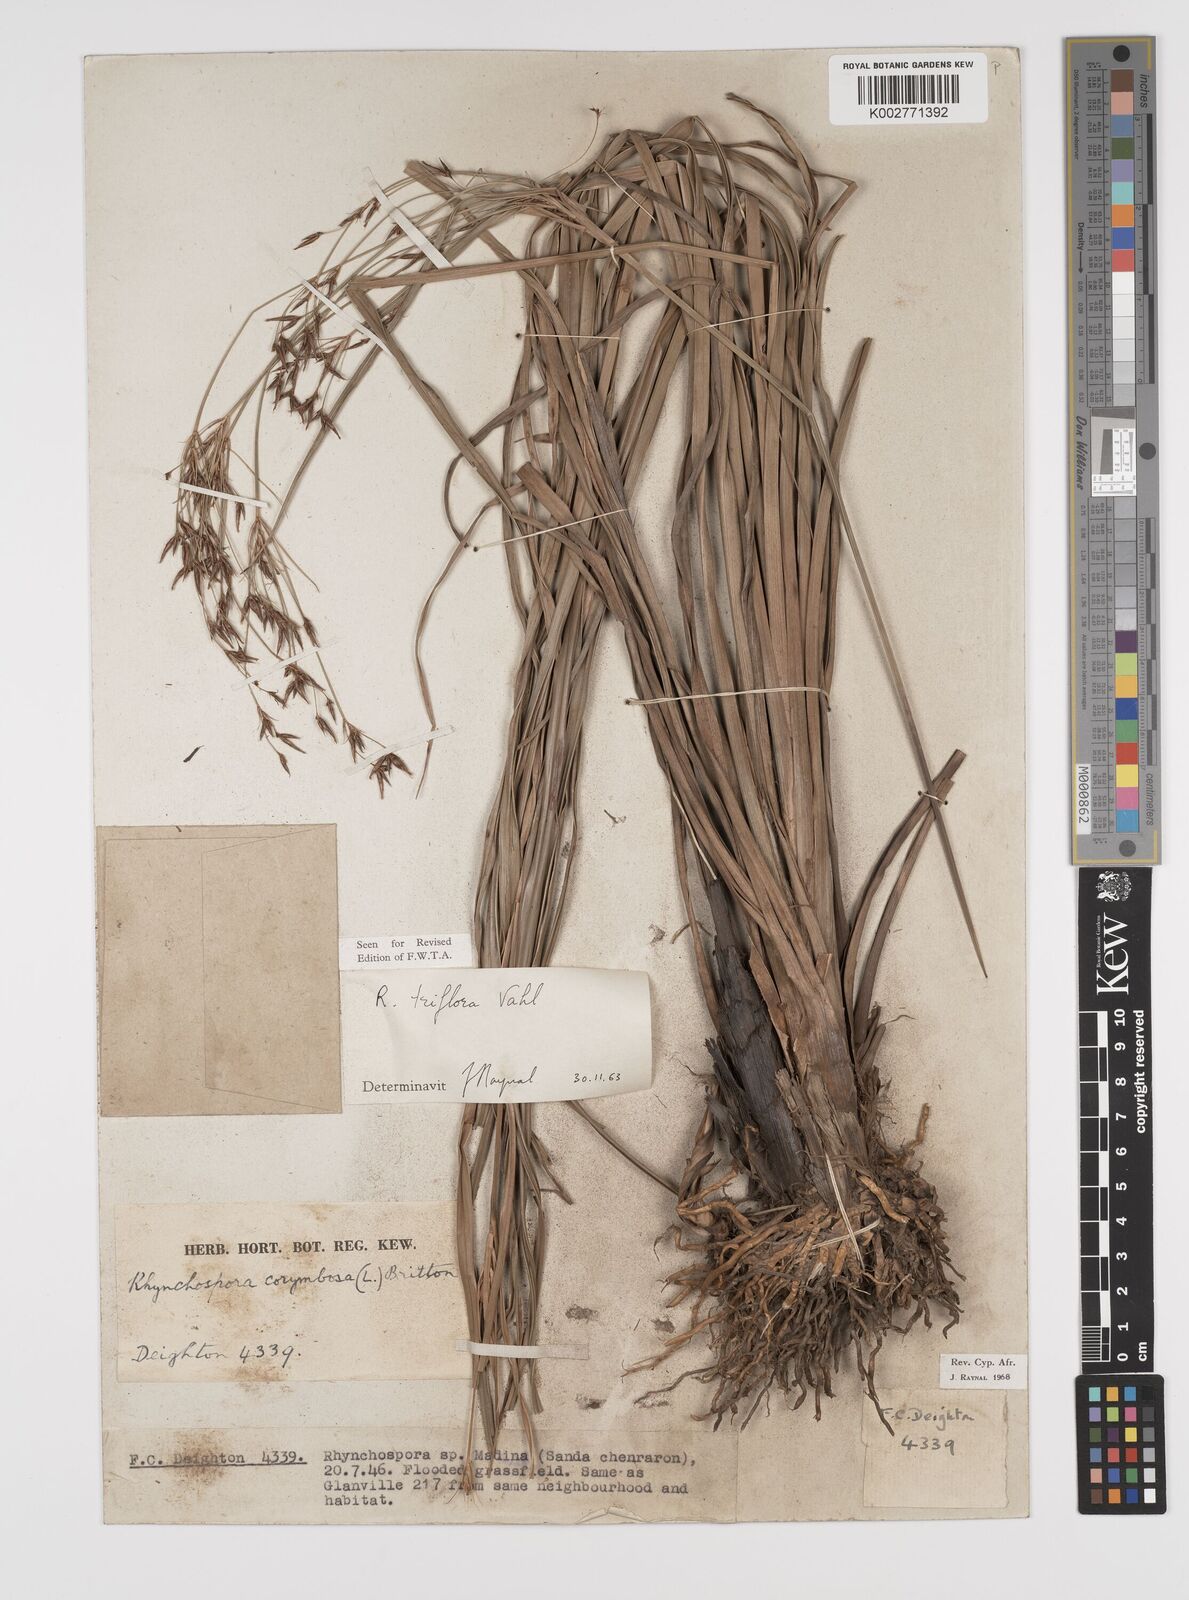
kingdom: Plantae
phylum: Tracheophyta
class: Liliopsida
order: Poales
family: Cyperaceae
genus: Rhynchospora
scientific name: Rhynchospora triflora
